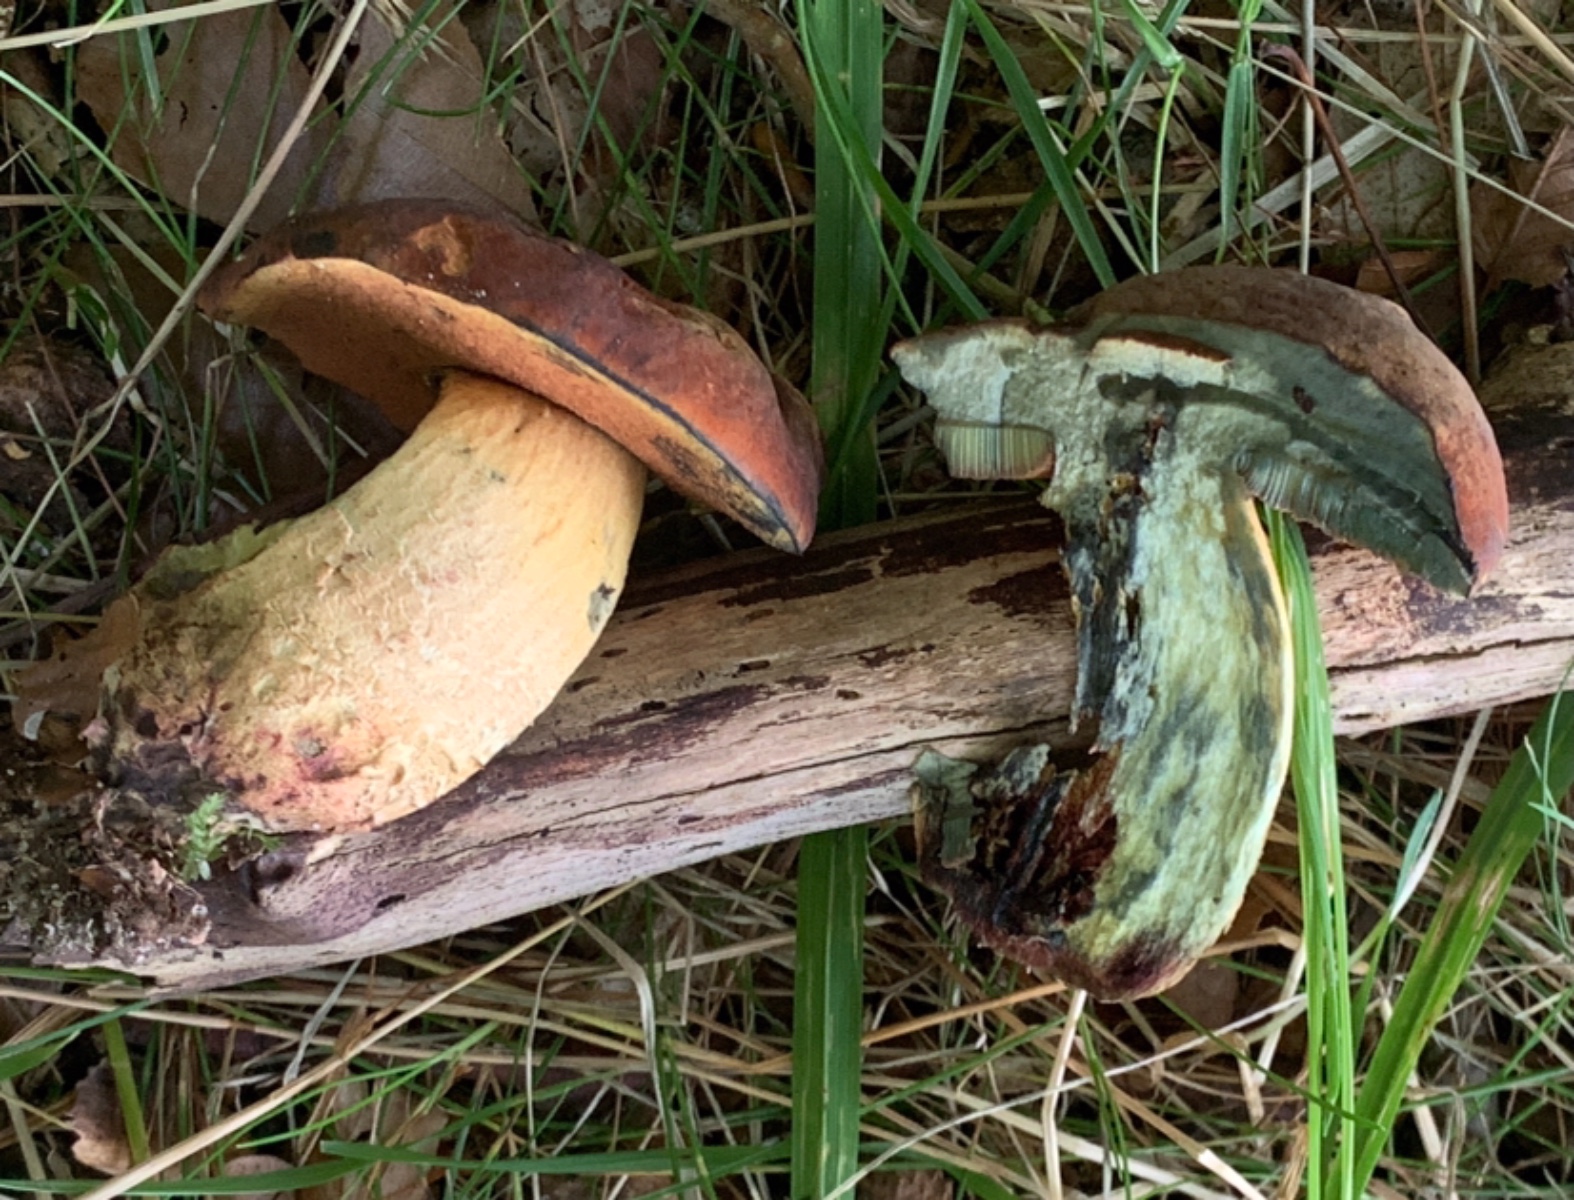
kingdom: Fungi
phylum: Basidiomycota
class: Agaricomycetes
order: Boletales
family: Boletaceae
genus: Suillellus
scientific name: Suillellus queletii
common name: glatstokket indigorørhat
